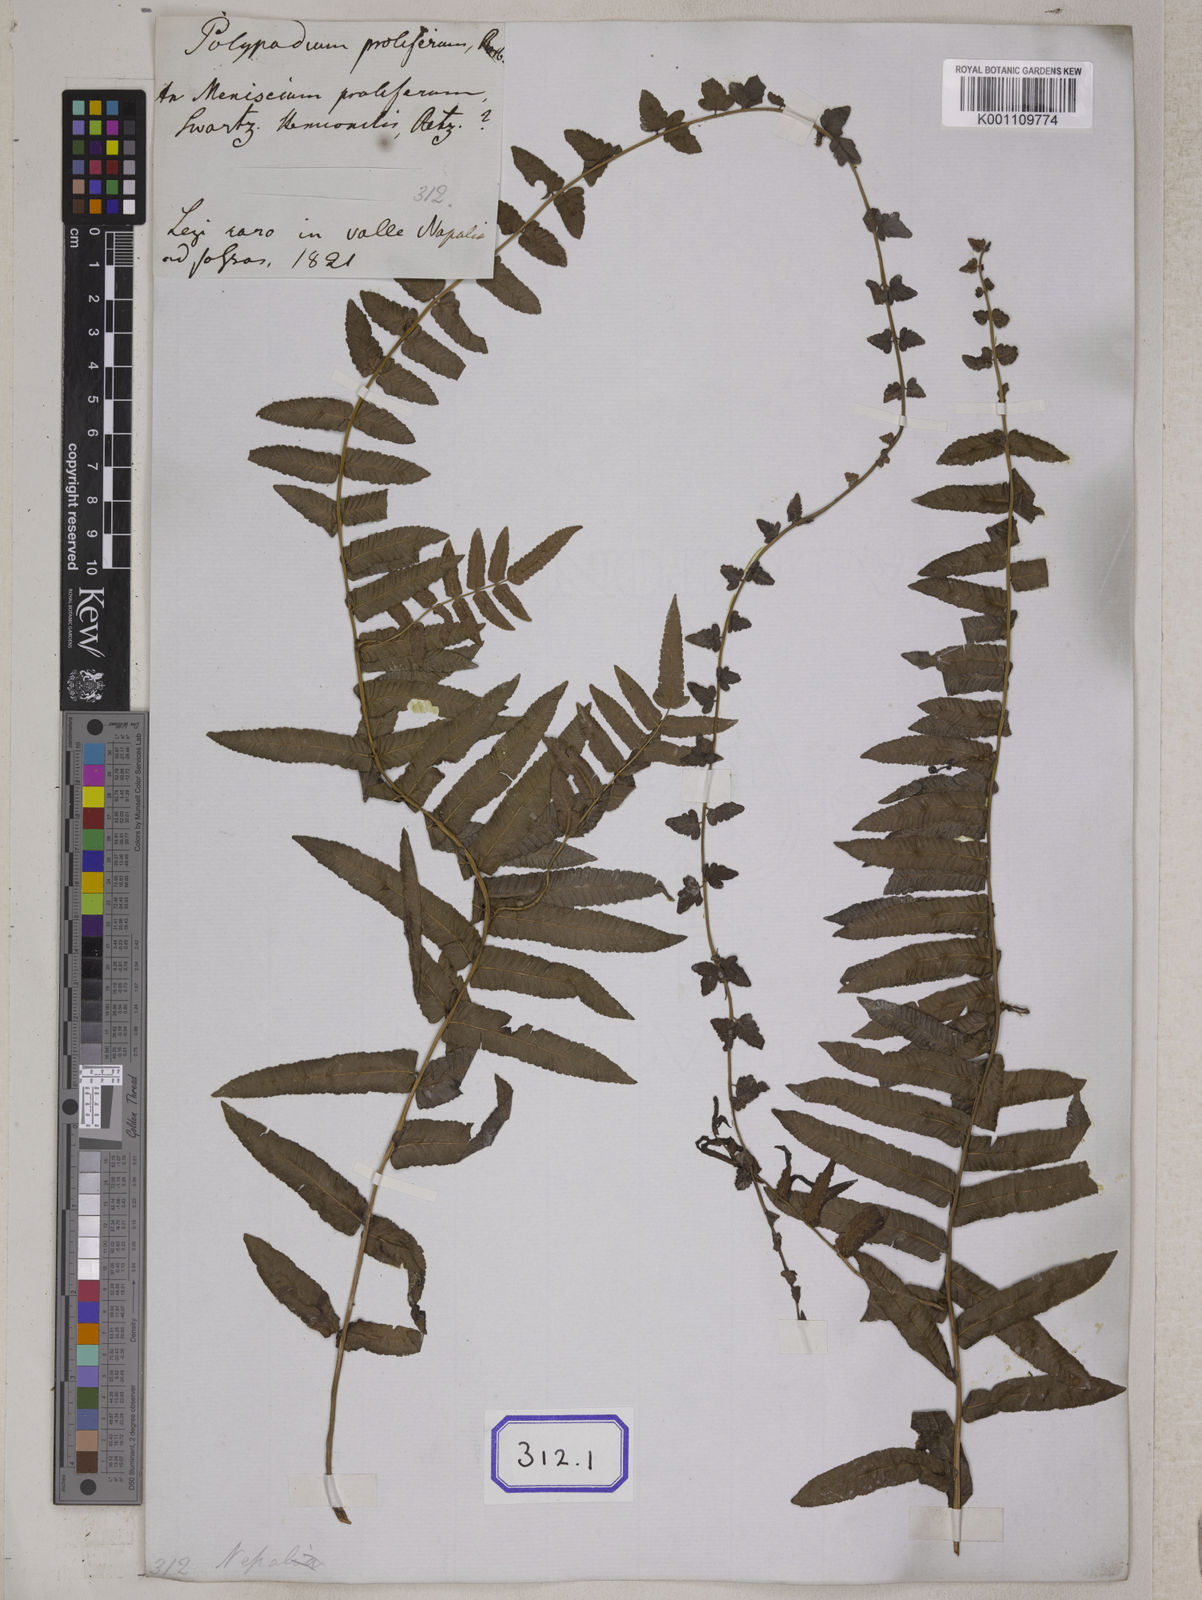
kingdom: Plantae
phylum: Tracheophyta
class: Polypodiopsida
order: Polypodiales
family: Polypodiaceae
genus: Polypodium
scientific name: Polypodium
